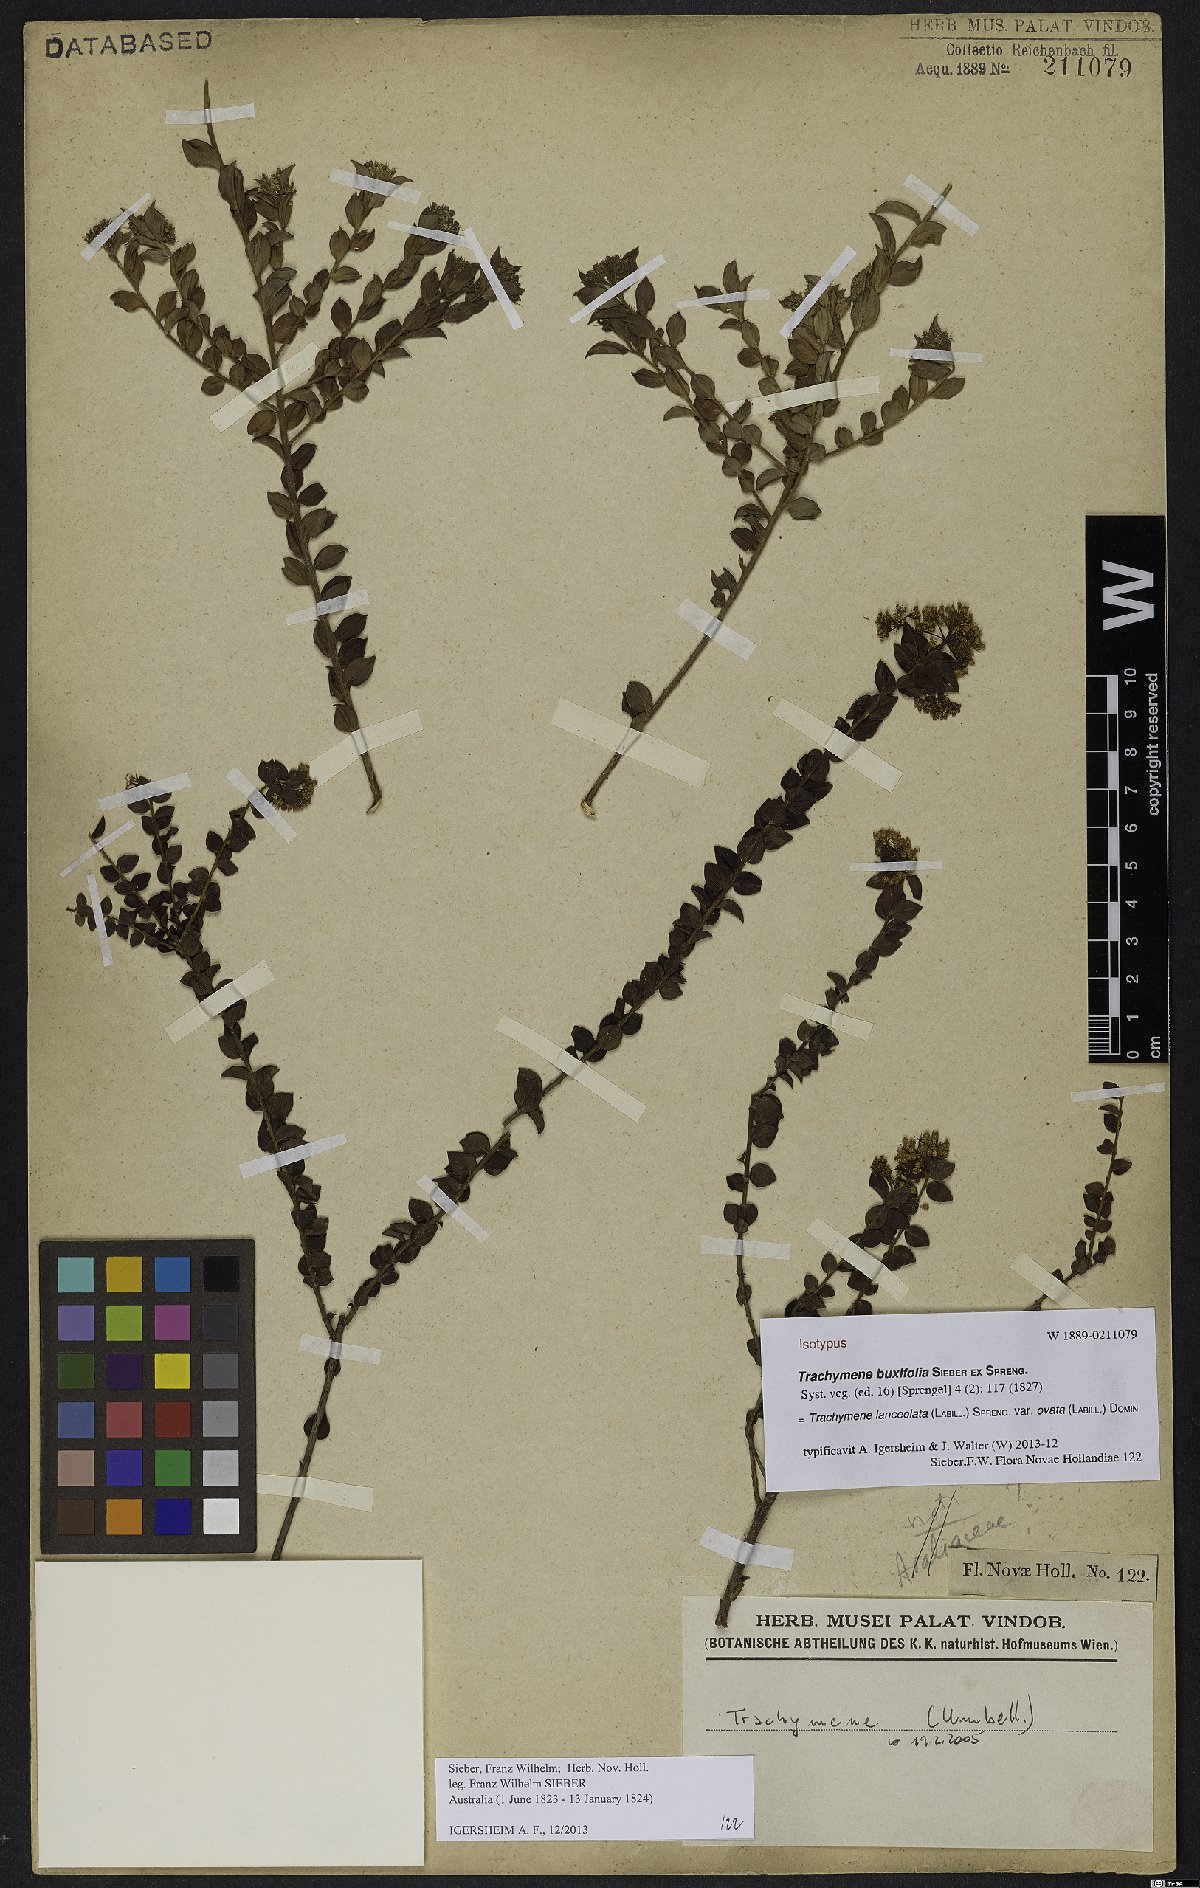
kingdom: Plantae
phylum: Tracheophyta
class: Magnoliopsida
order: Apiales
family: Apiaceae
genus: Platysace
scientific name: Platysace lanceolata
